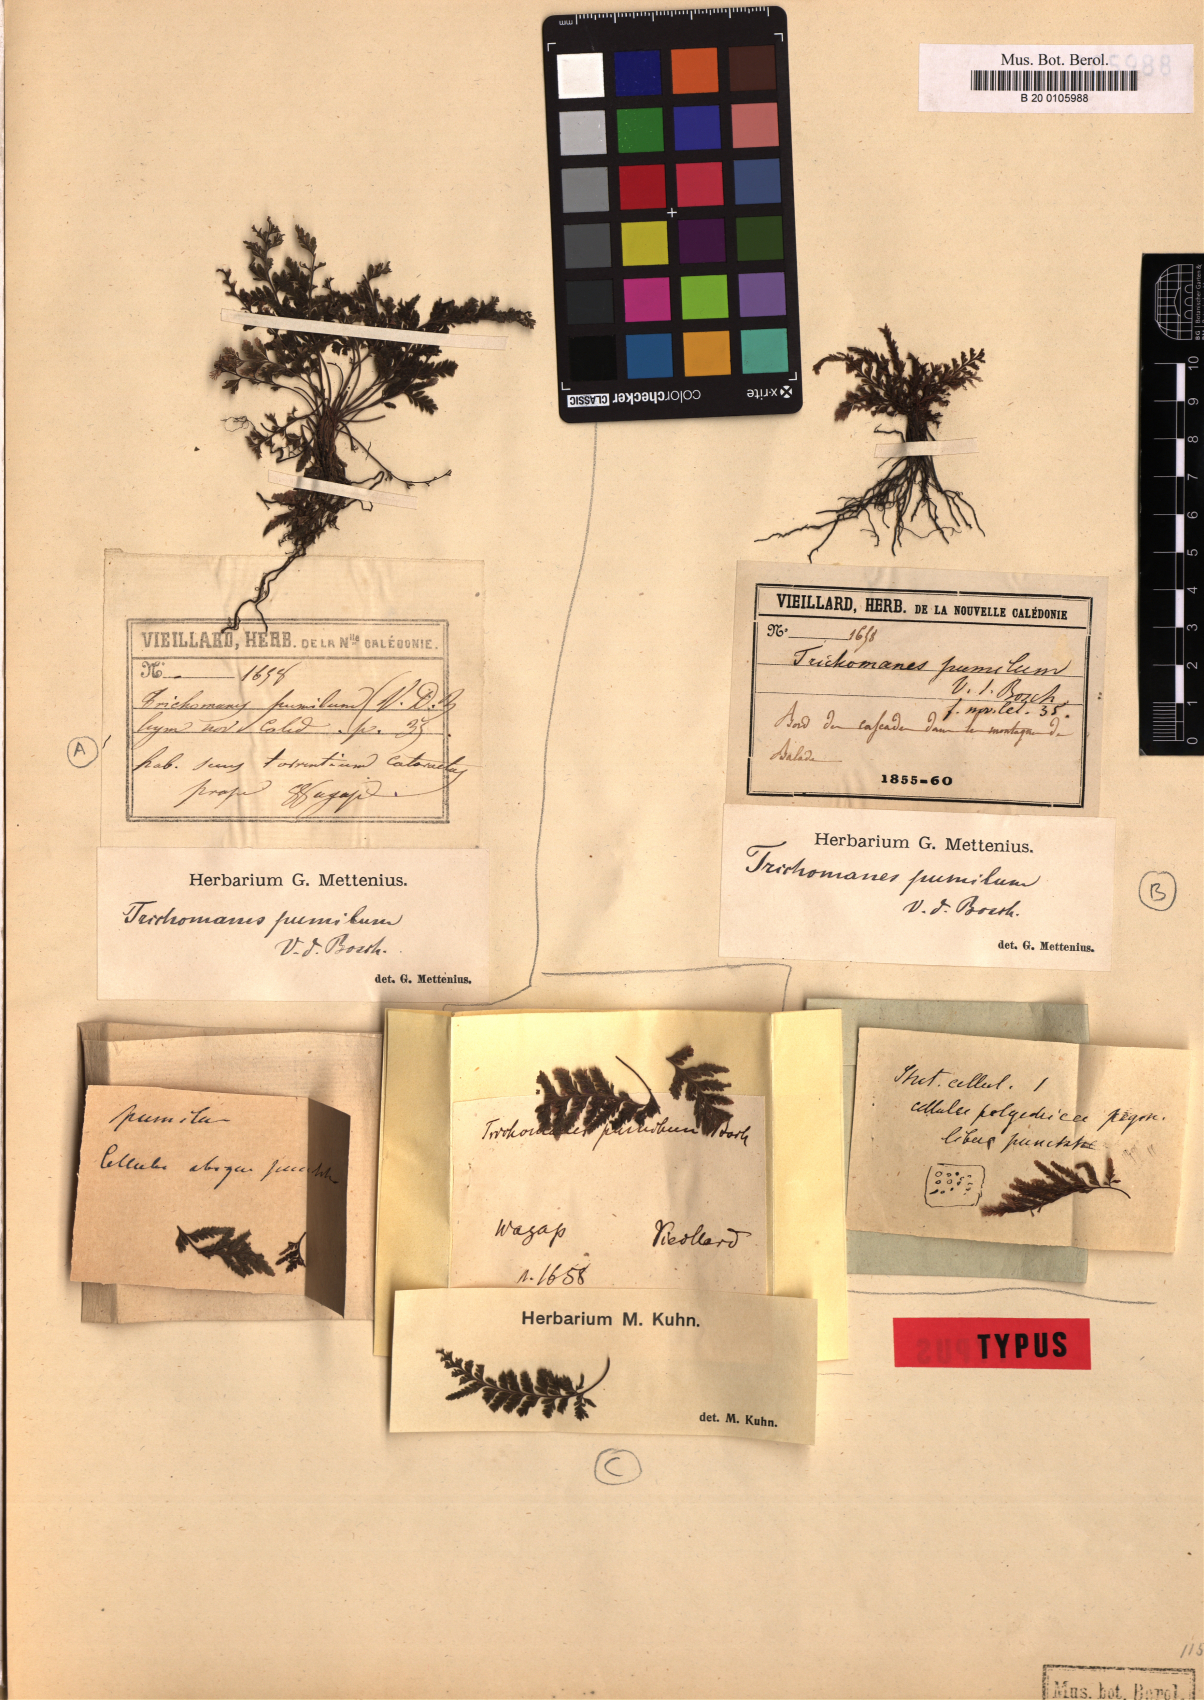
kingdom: Plantae
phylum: Tracheophyta
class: Polypodiopsida
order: Hymenophyllales
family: Hymenophyllaceae
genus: Abrodictyum
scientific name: Abrodictyum dentatum
